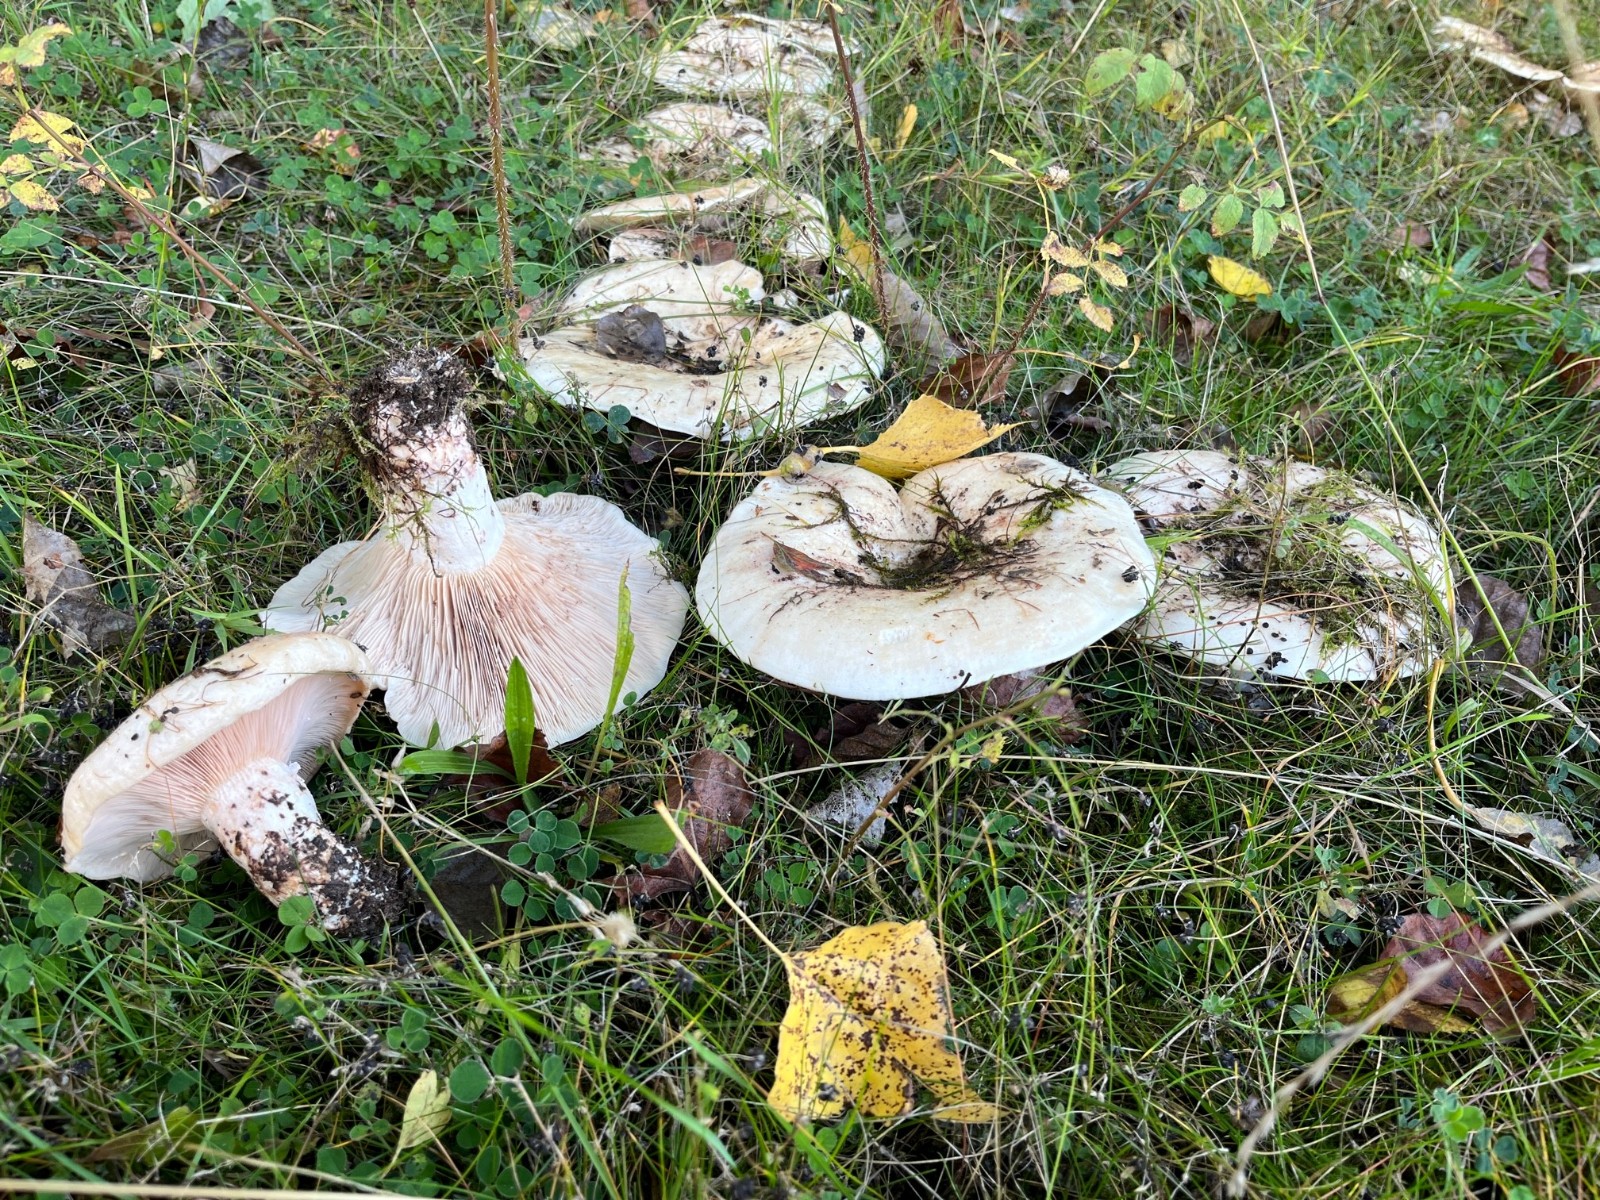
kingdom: Fungi
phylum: Basidiomycota
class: Agaricomycetes
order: Russulales
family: Russulaceae
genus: Lactarius
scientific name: Lactarius controversus
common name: rosabladet mælkehat
